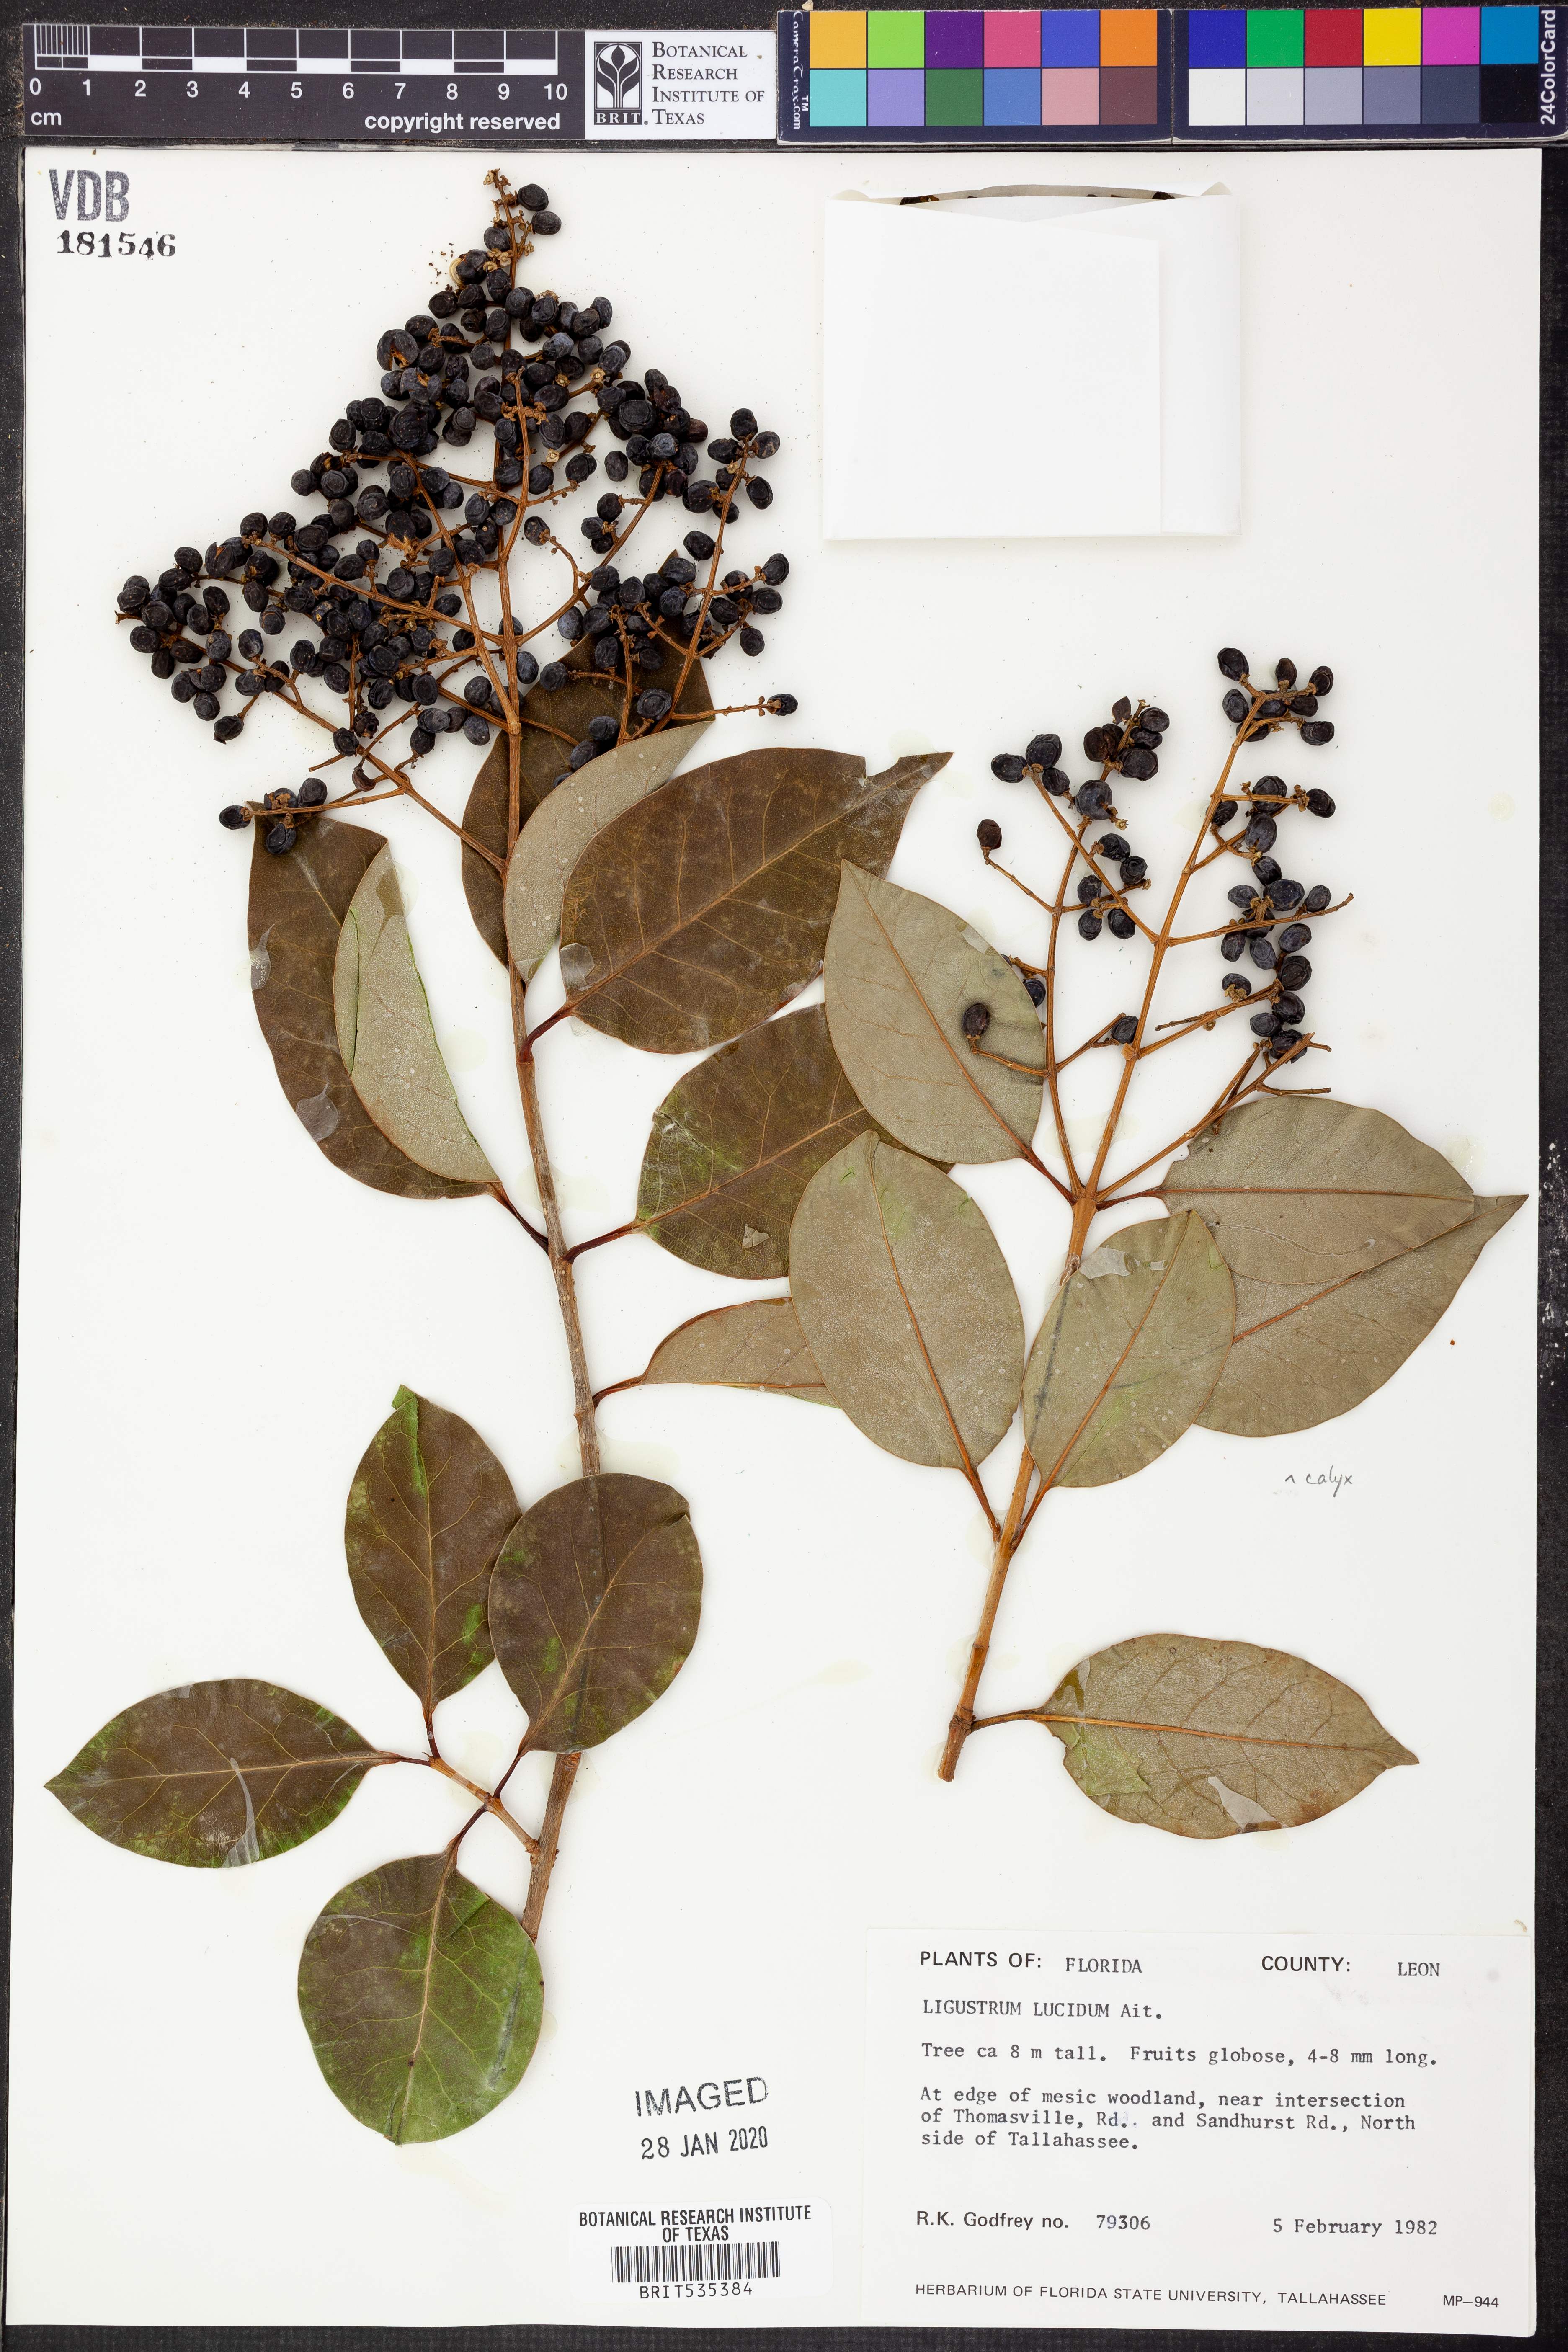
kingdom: Plantae
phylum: Tracheophyta
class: Magnoliopsida
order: Lamiales
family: Oleaceae
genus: Ligustrum
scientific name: Ligustrum lucidum
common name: Glossy privet
